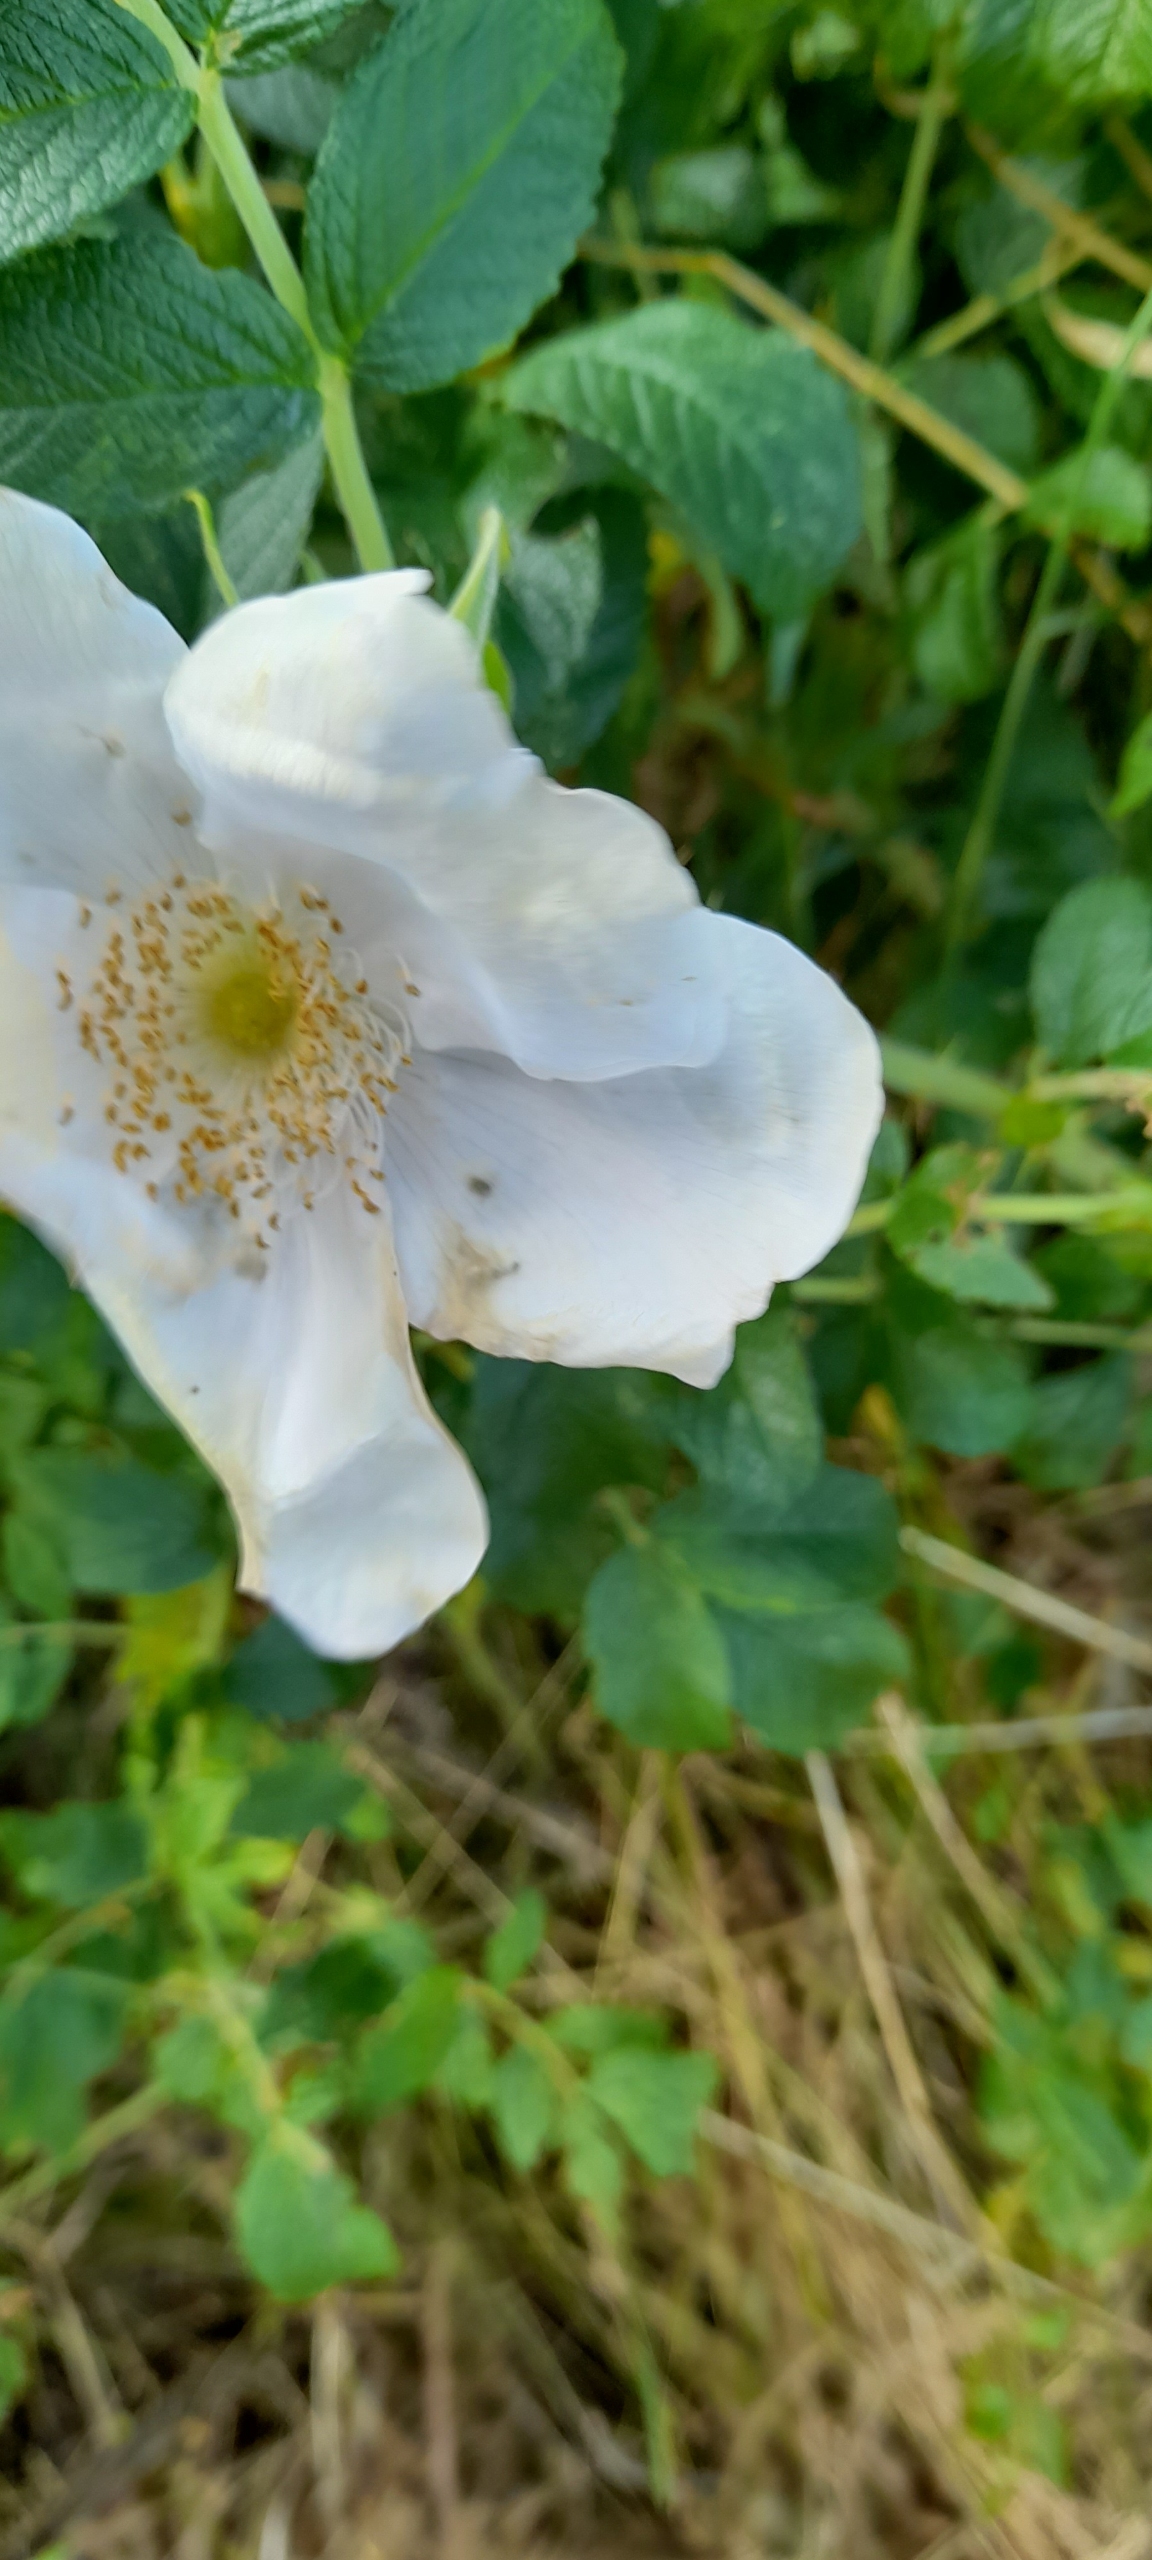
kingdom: Plantae
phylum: Tracheophyta
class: Magnoliopsida
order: Rosales
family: Rosaceae
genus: Rosa
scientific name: Rosa rugosa
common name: Rynket rose
